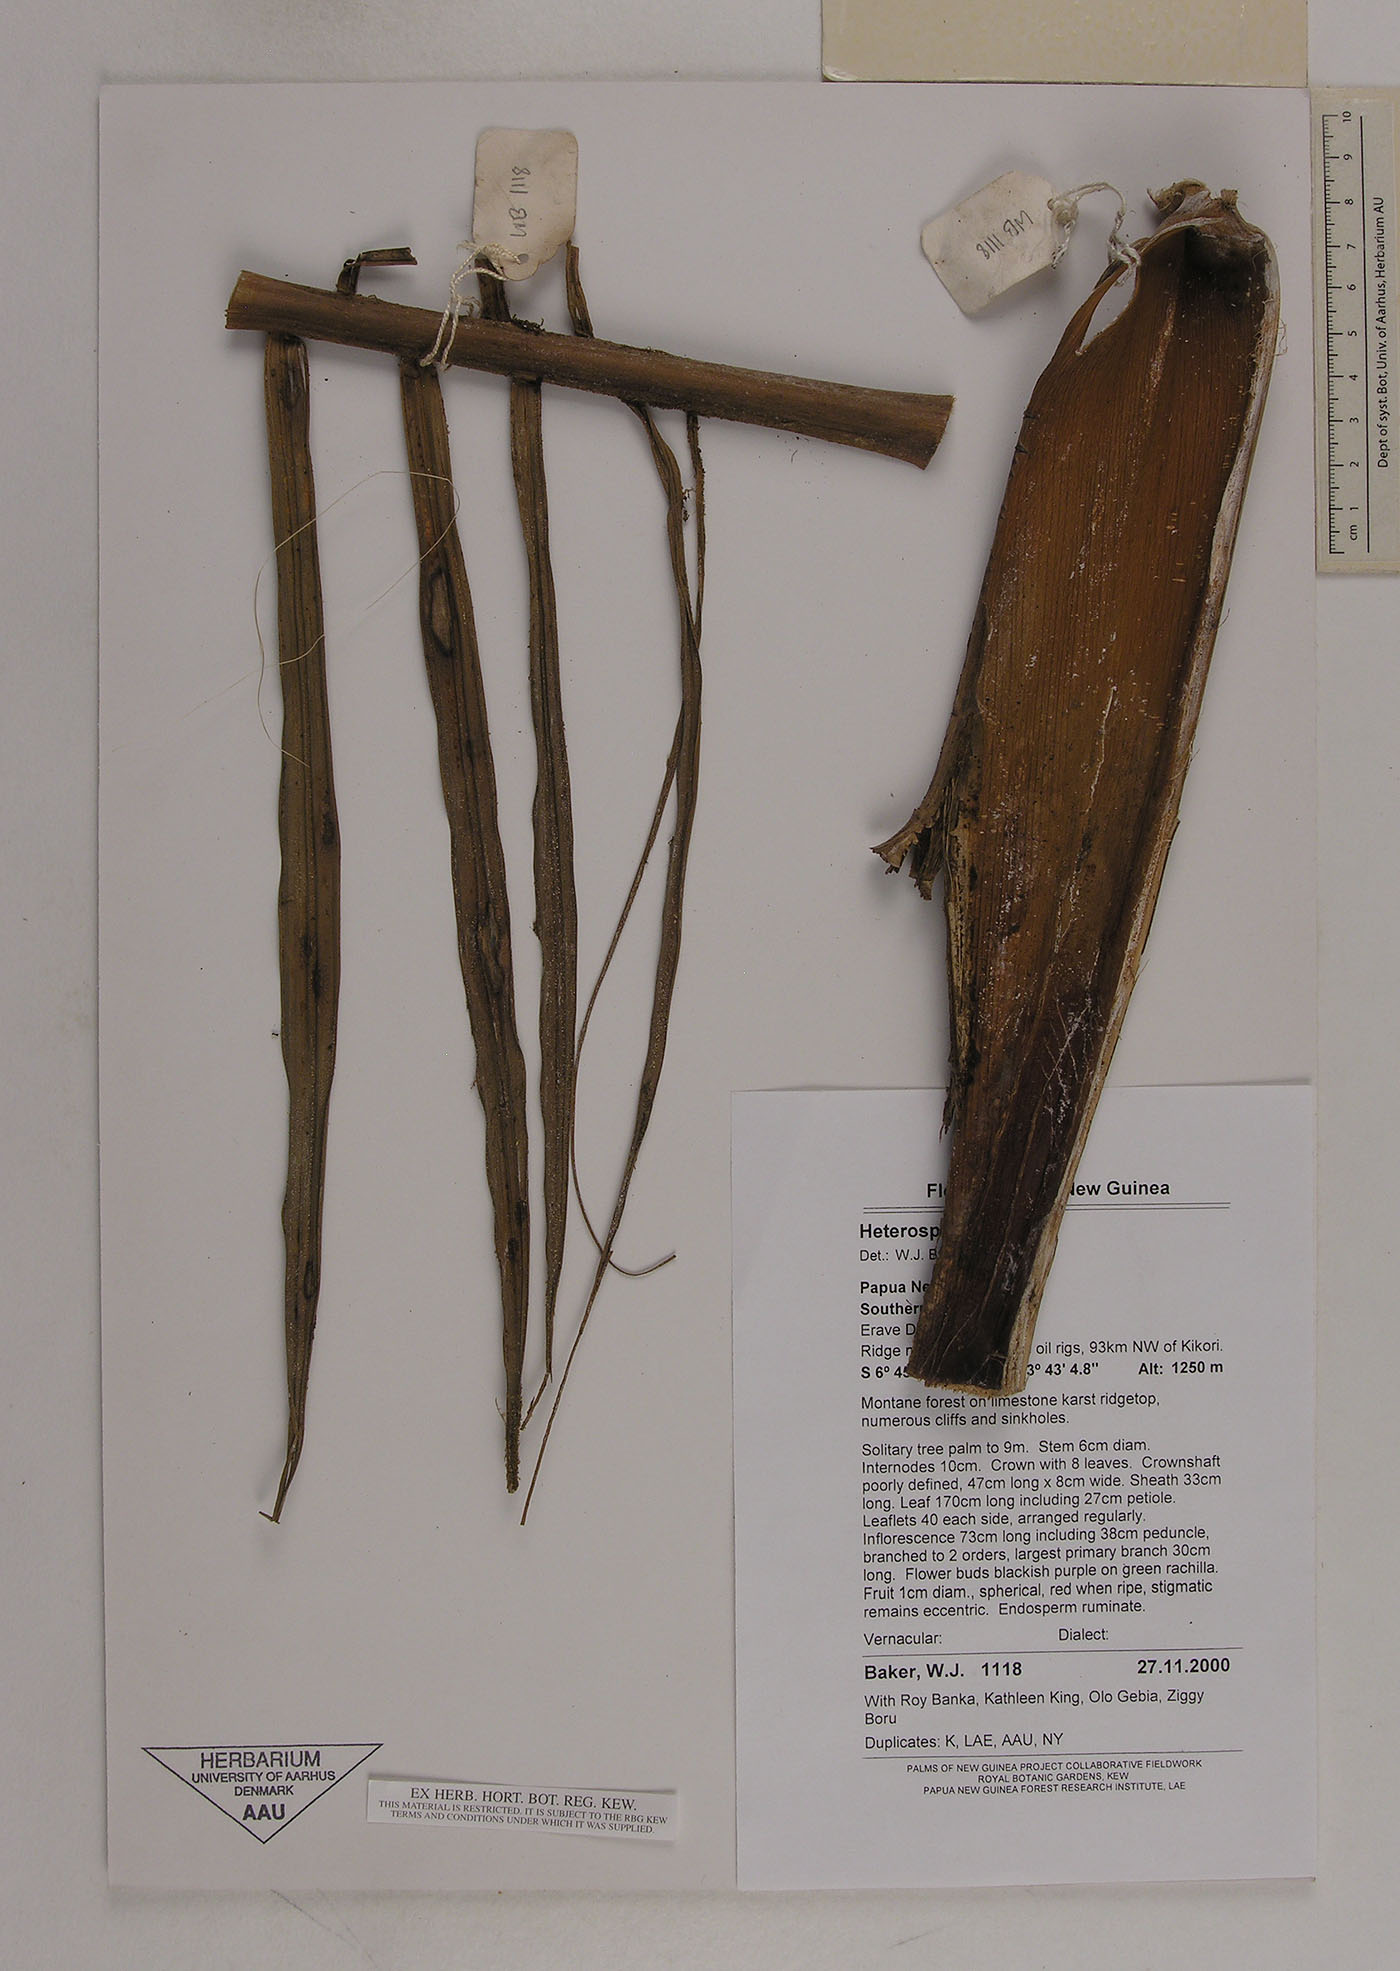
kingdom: Plantae
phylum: Tracheophyta
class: Liliopsida
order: Arecales
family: Arecaceae
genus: Heterospathe
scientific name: Heterospathe
